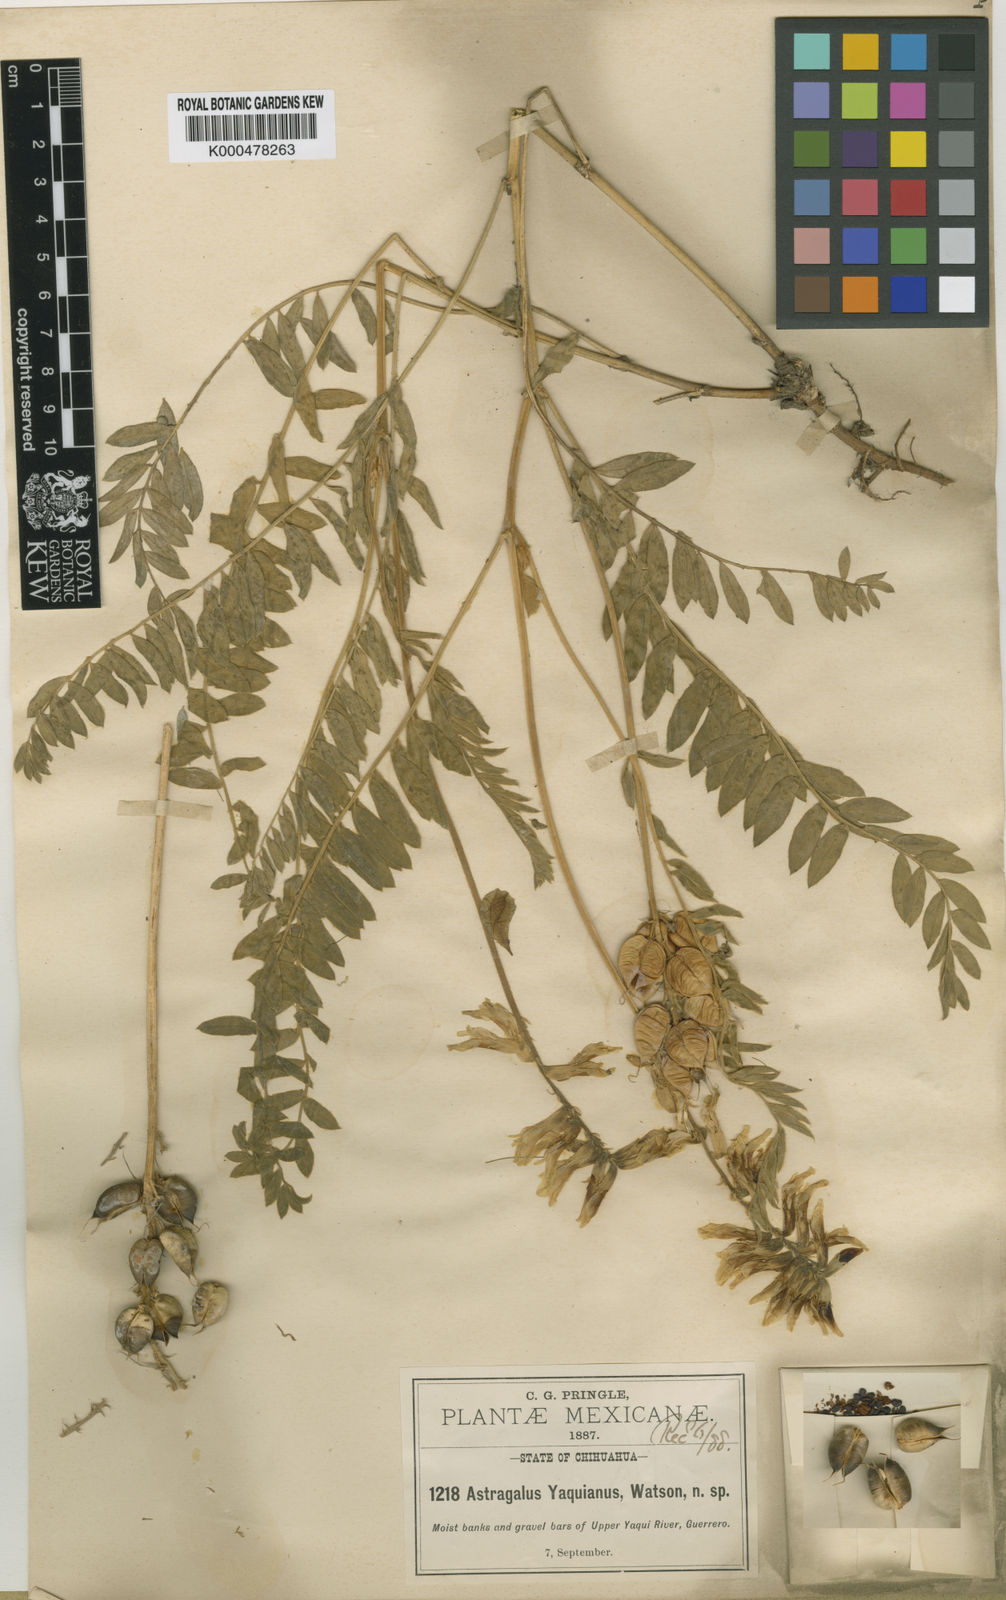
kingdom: Plantae
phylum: Tracheophyta
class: Magnoliopsida
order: Fabales
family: Fabaceae
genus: Astragalus
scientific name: Astragalus giganteus
